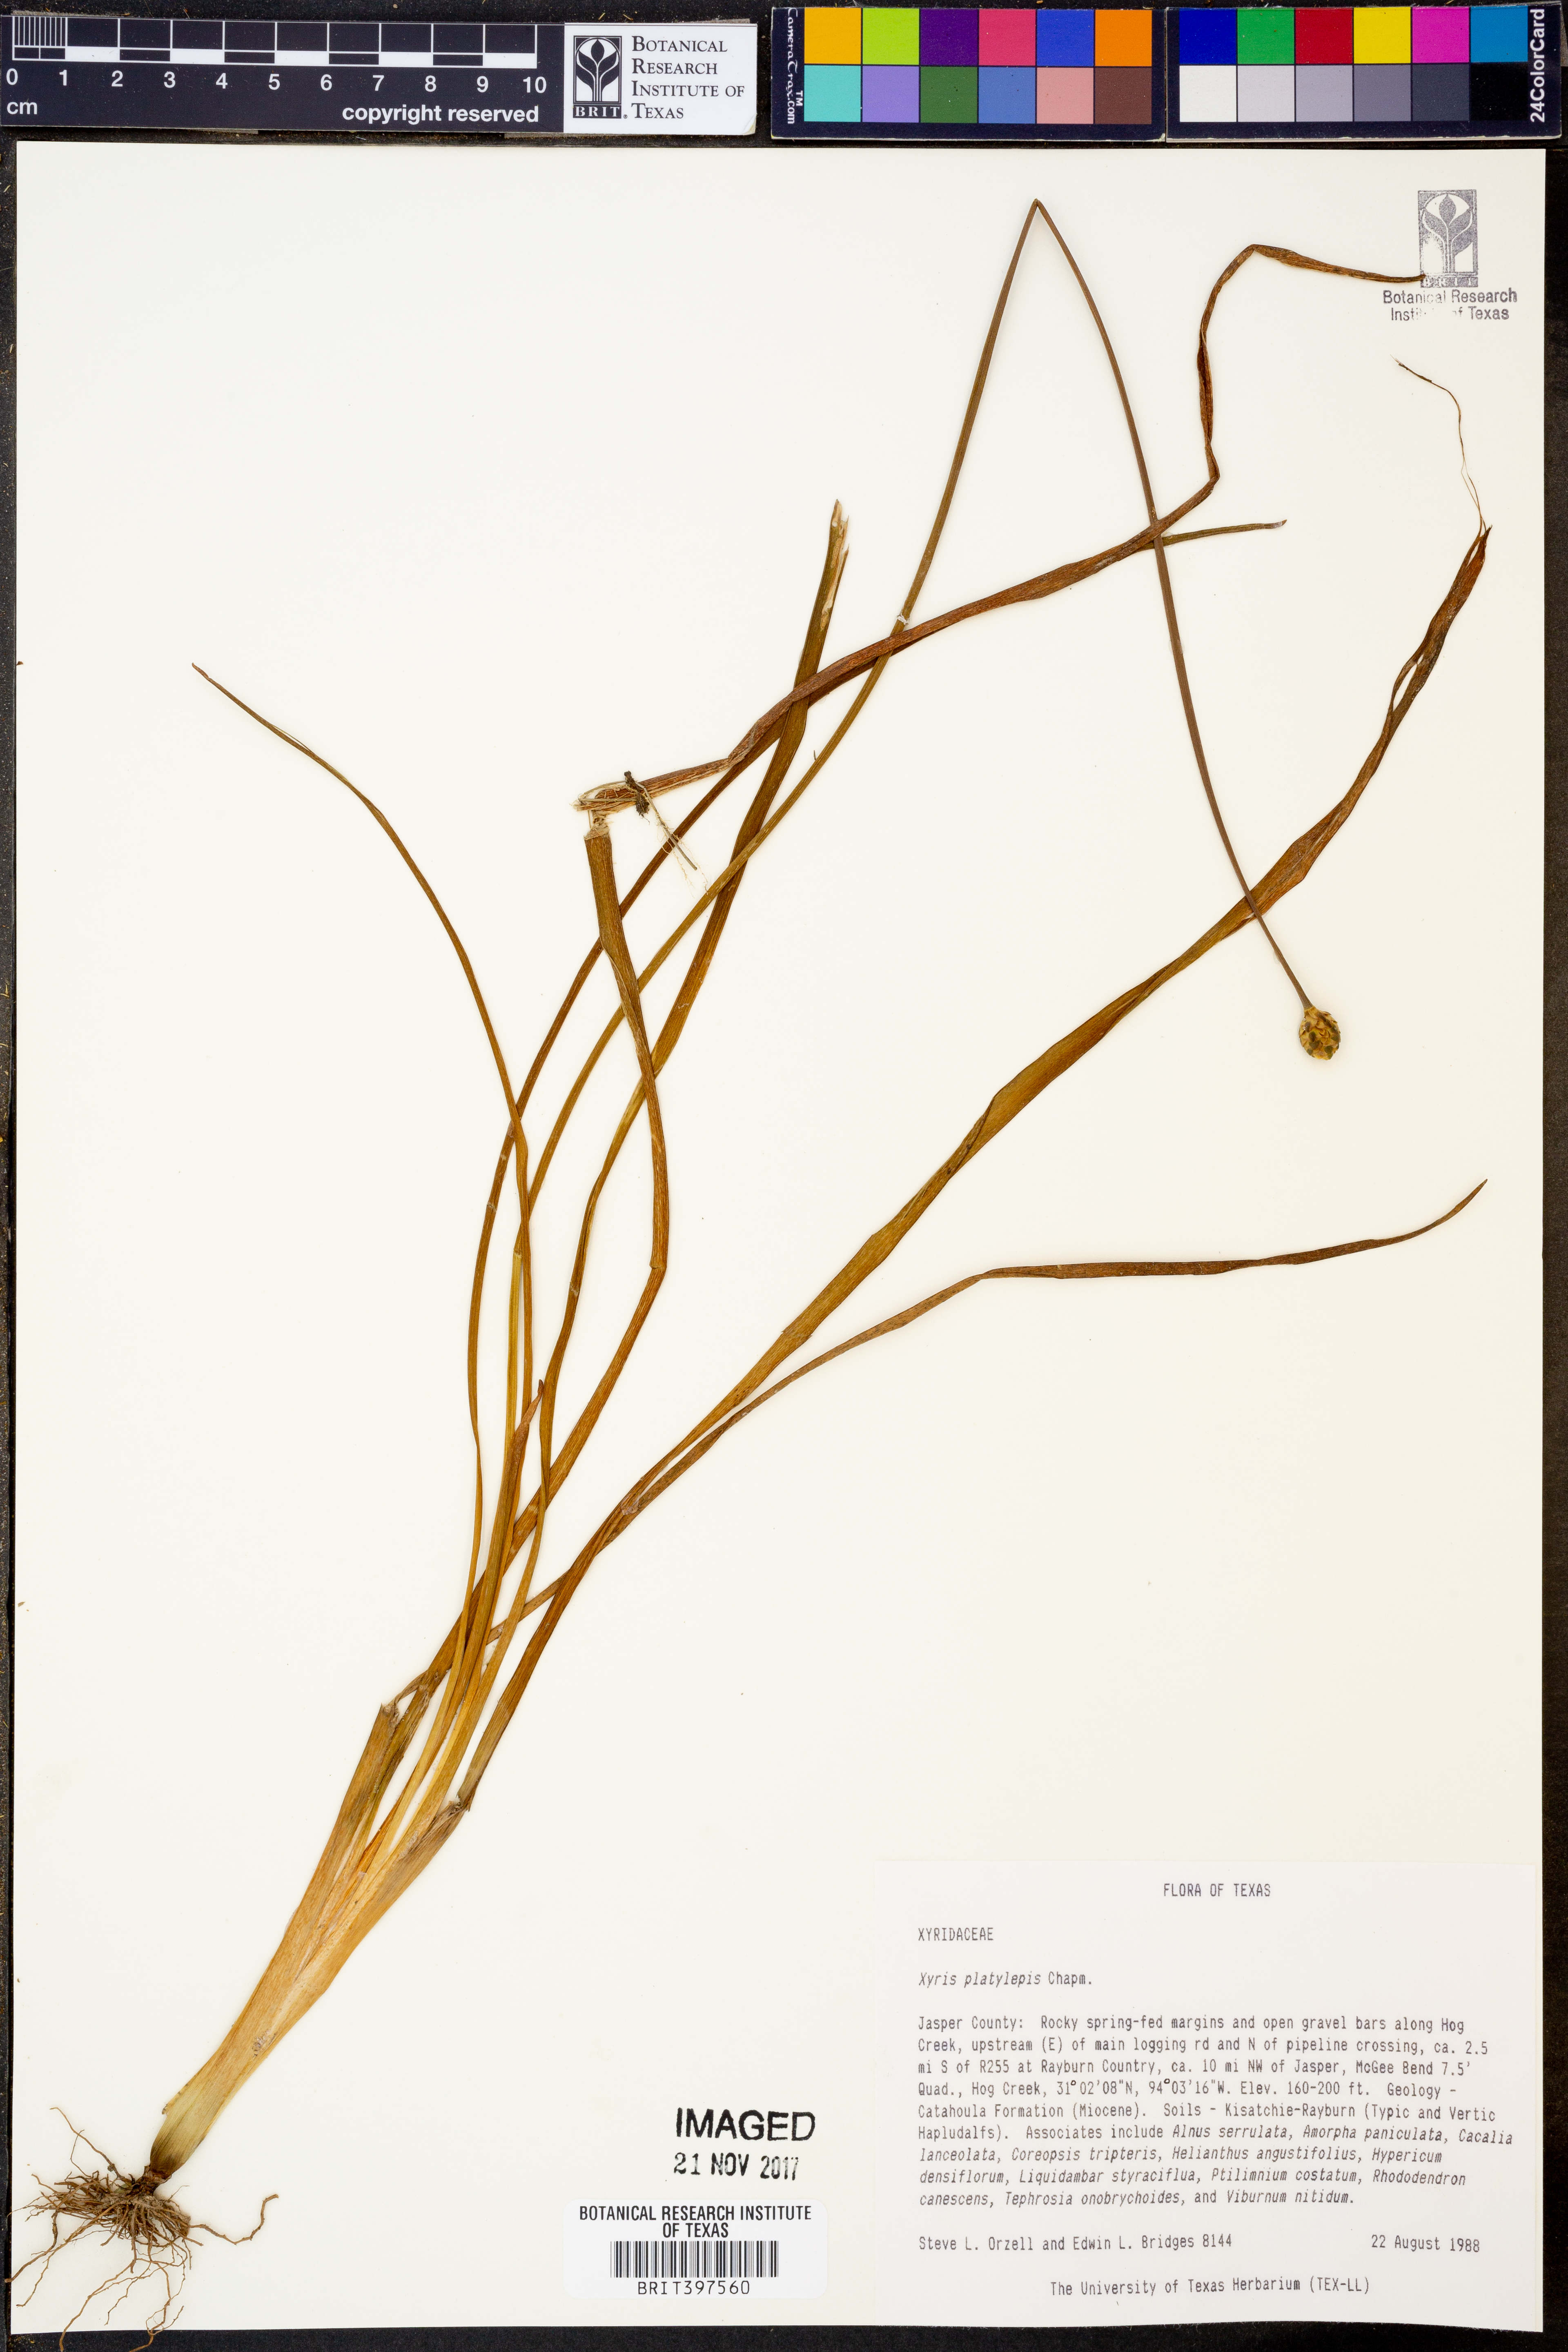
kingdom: Plantae
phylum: Tracheophyta
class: Liliopsida
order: Poales
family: Xyridaceae
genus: Xyris
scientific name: Xyris platylepis
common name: Tall yelloweyed grass
